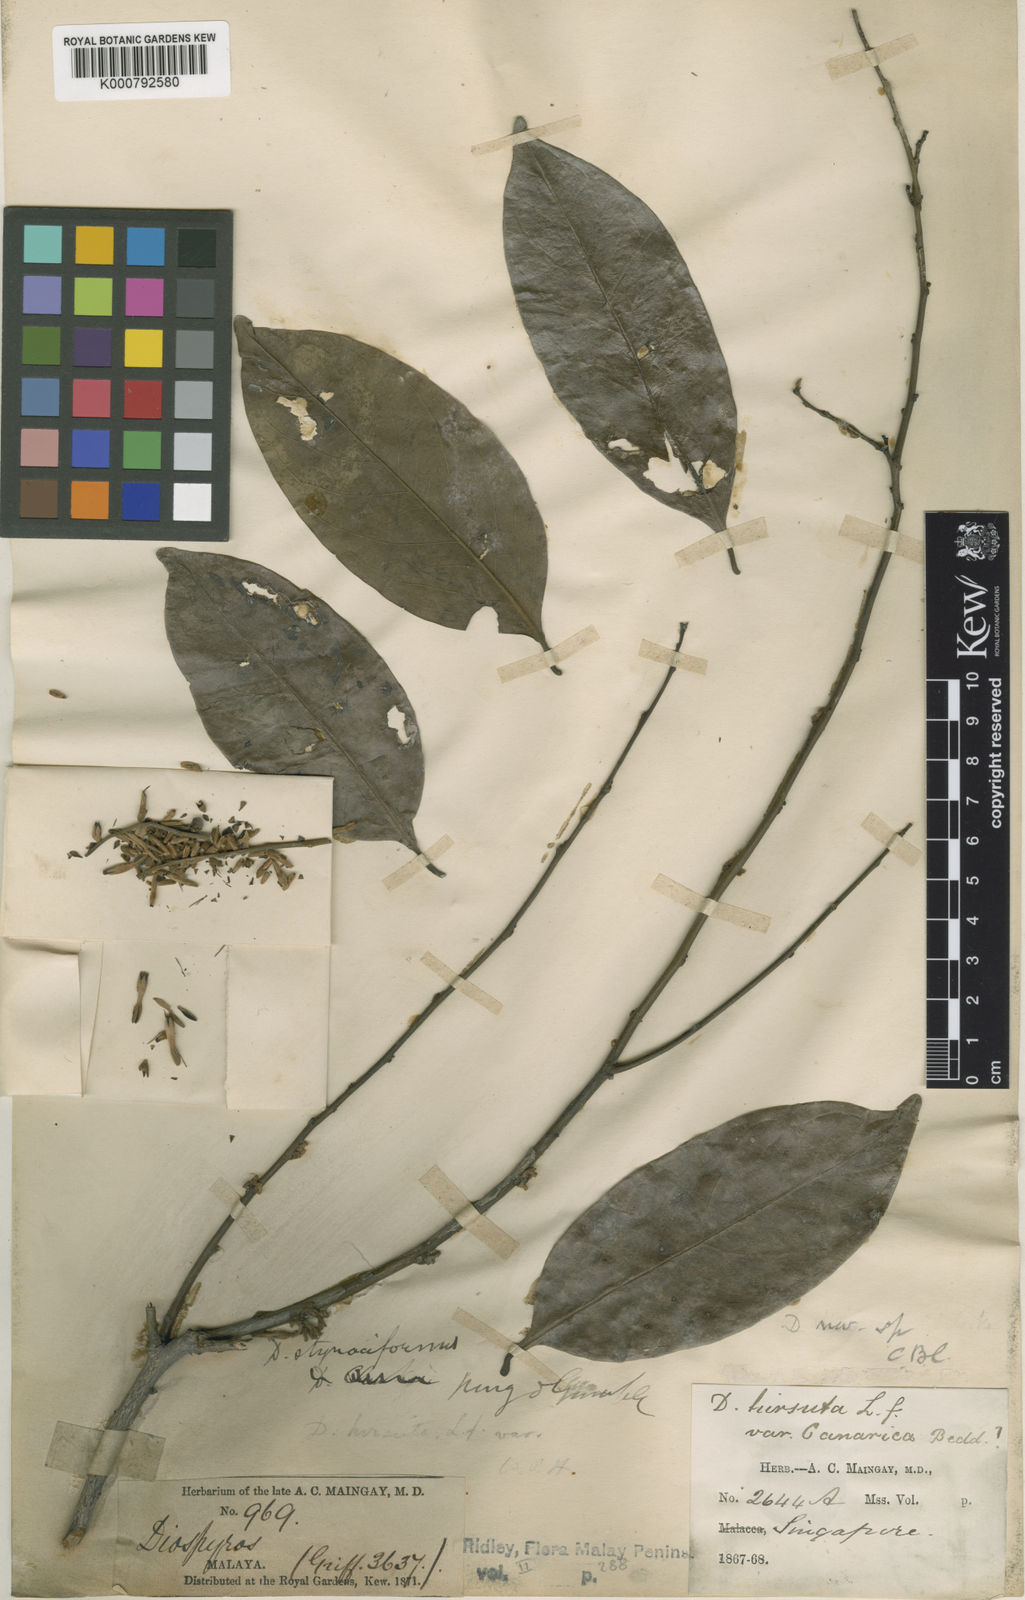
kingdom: Plantae
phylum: Tracheophyta
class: Magnoliopsida
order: Ericales
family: Ebenaceae
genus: Diospyros
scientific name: Diospyros styraciformis
